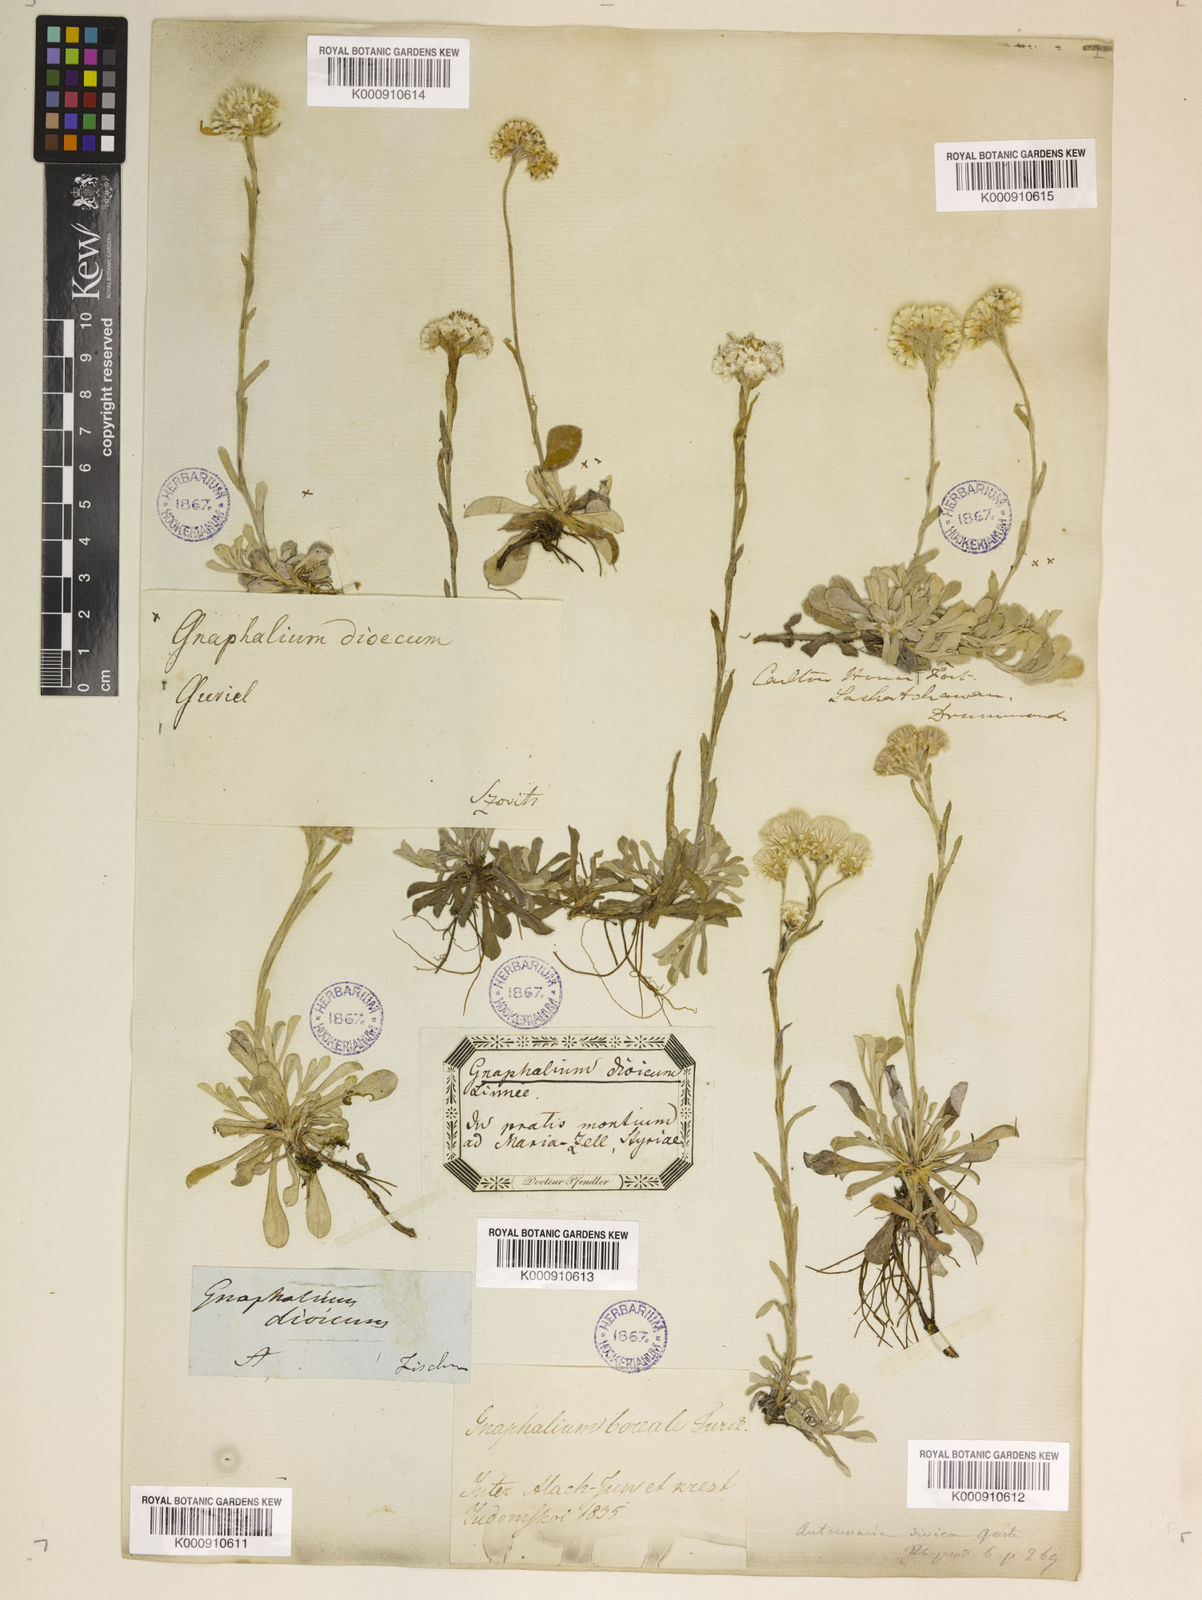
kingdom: Plantae
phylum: Tracheophyta
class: Magnoliopsida
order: Asterales
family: Asteraceae
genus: Antennaria
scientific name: Antennaria dioica
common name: Mountain everlasting
